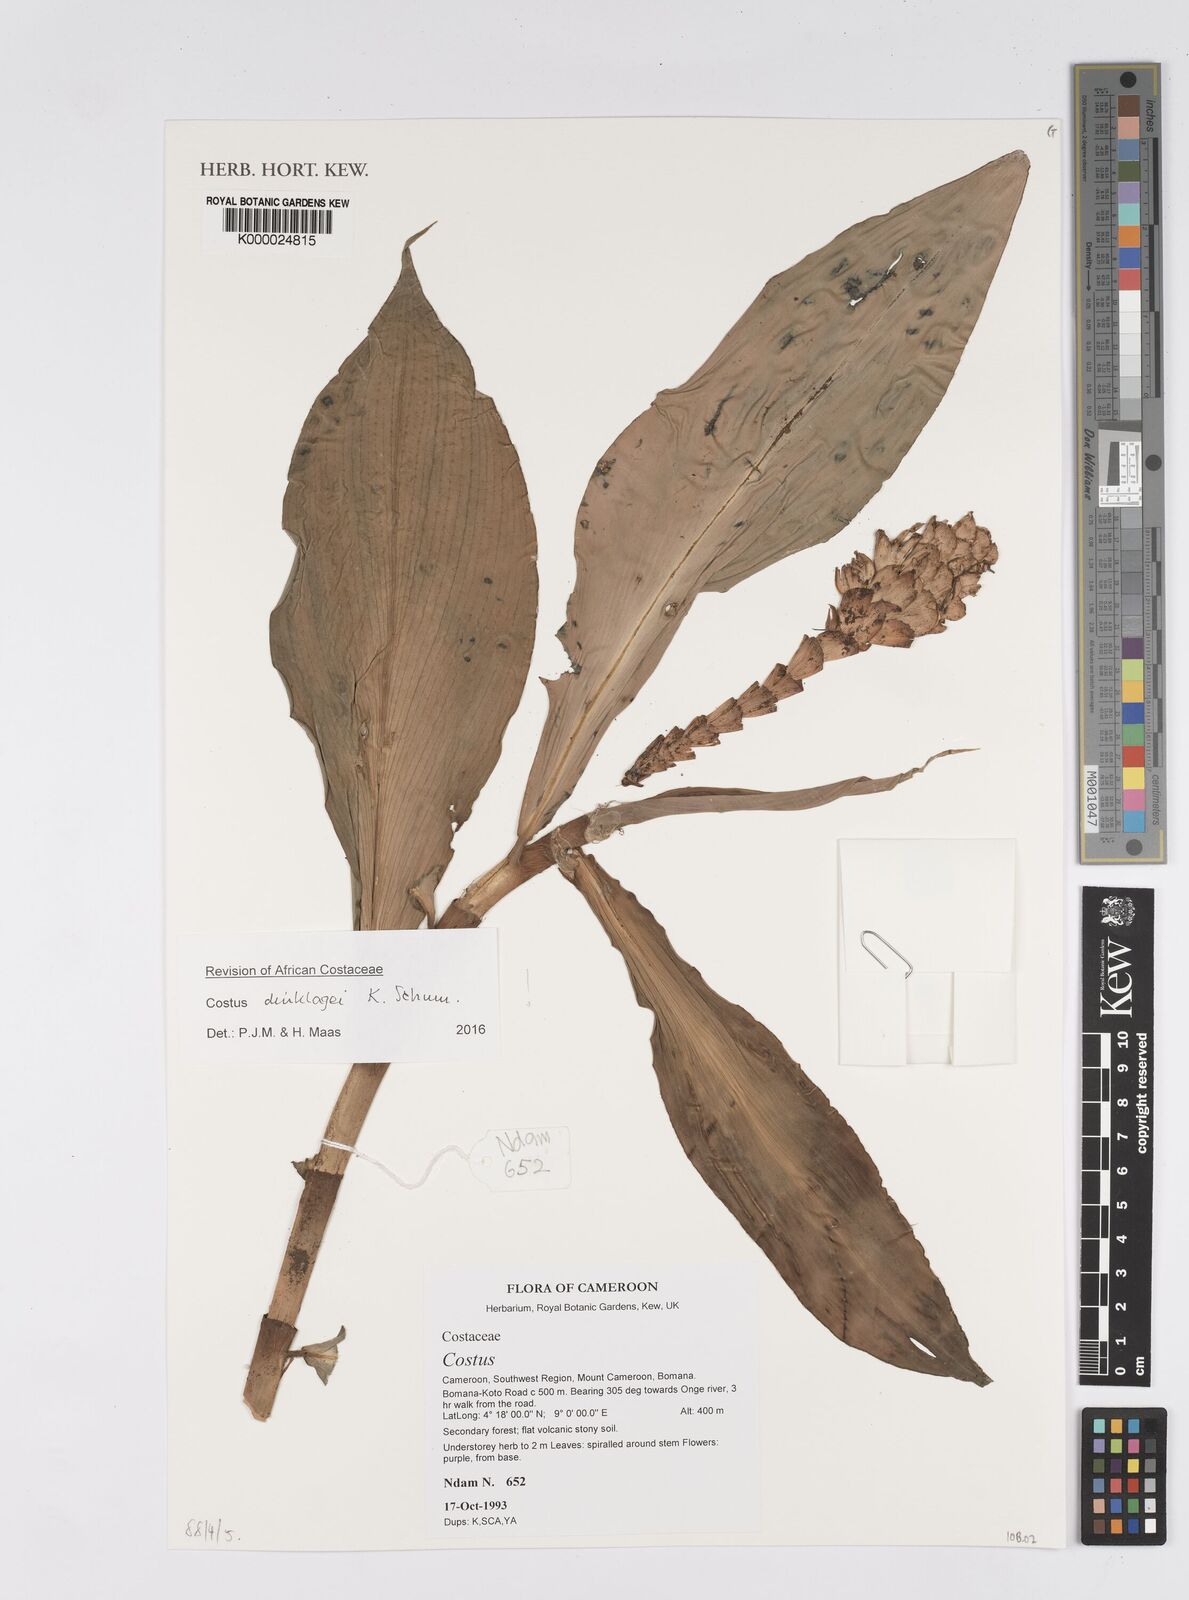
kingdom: Plantae
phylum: Tracheophyta
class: Liliopsida
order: Zingiberales
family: Costaceae
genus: Costus
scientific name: Costus
